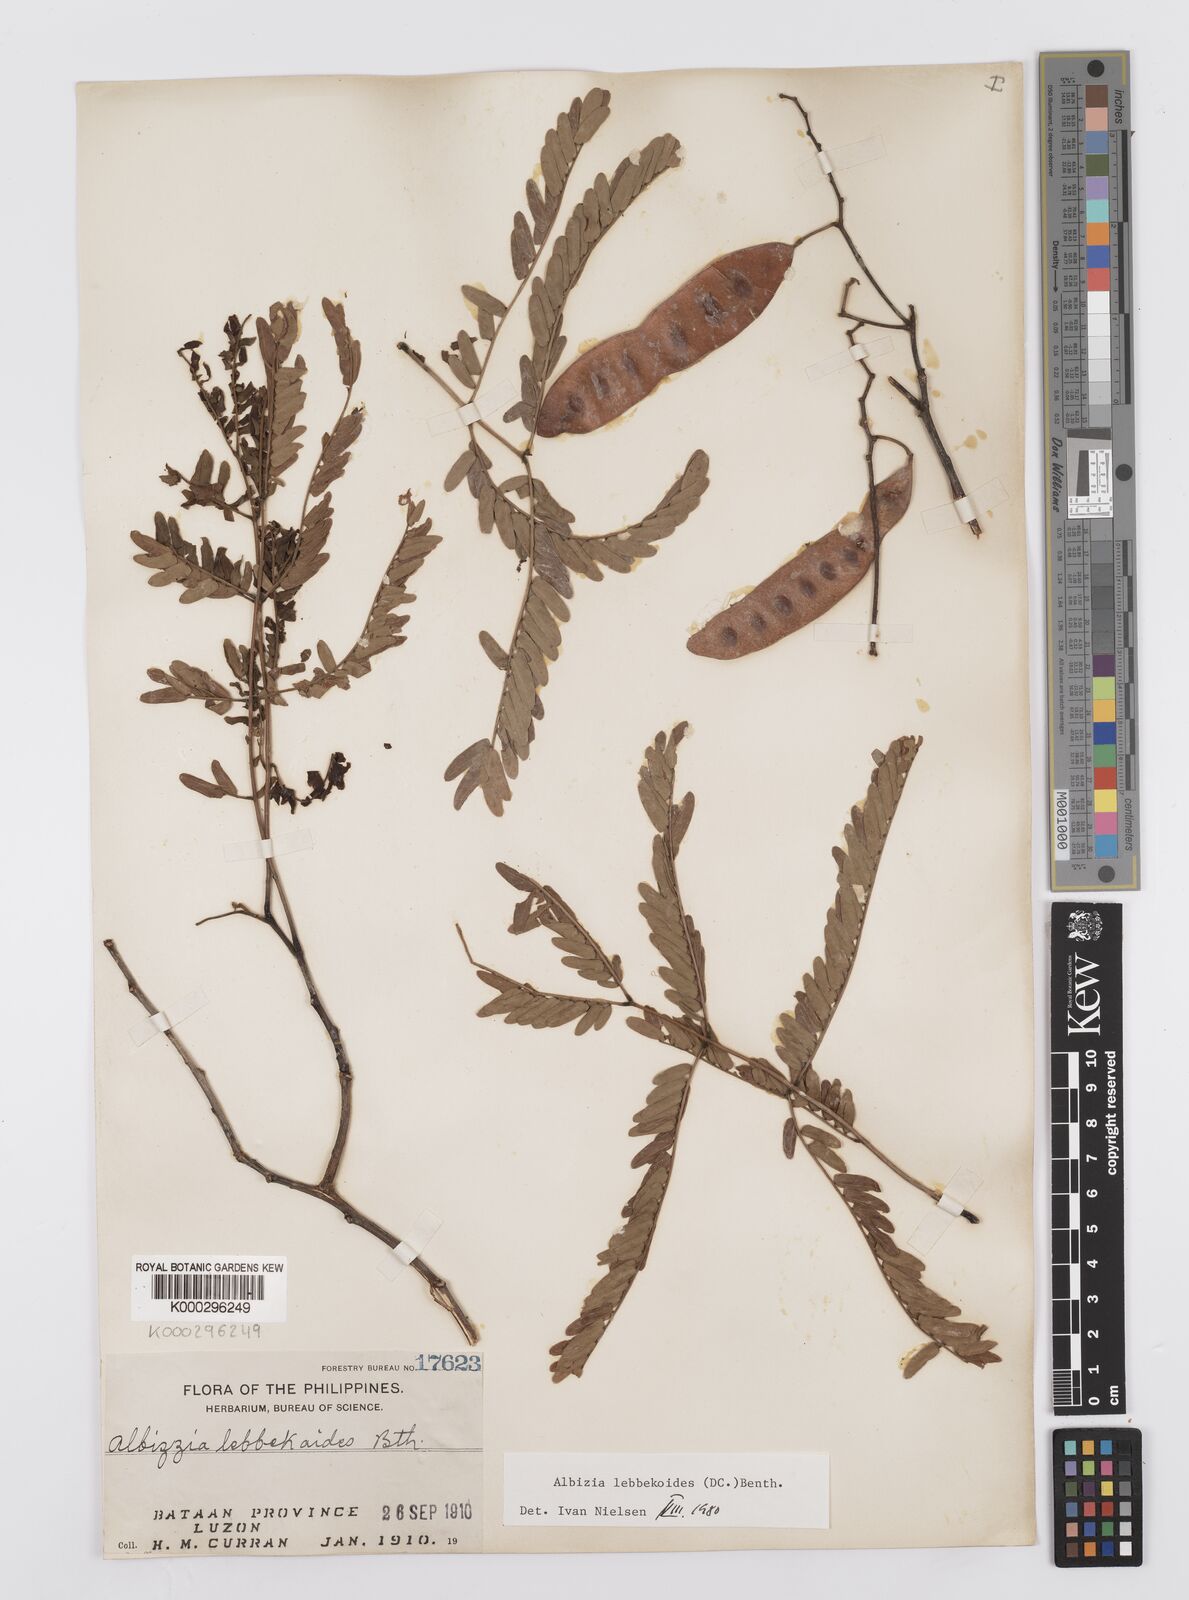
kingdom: Plantae
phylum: Tracheophyta
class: Magnoliopsida
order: Fabales
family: Fabaceae
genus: Albizia
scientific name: Albizia lebbekoides
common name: Indian albizia
